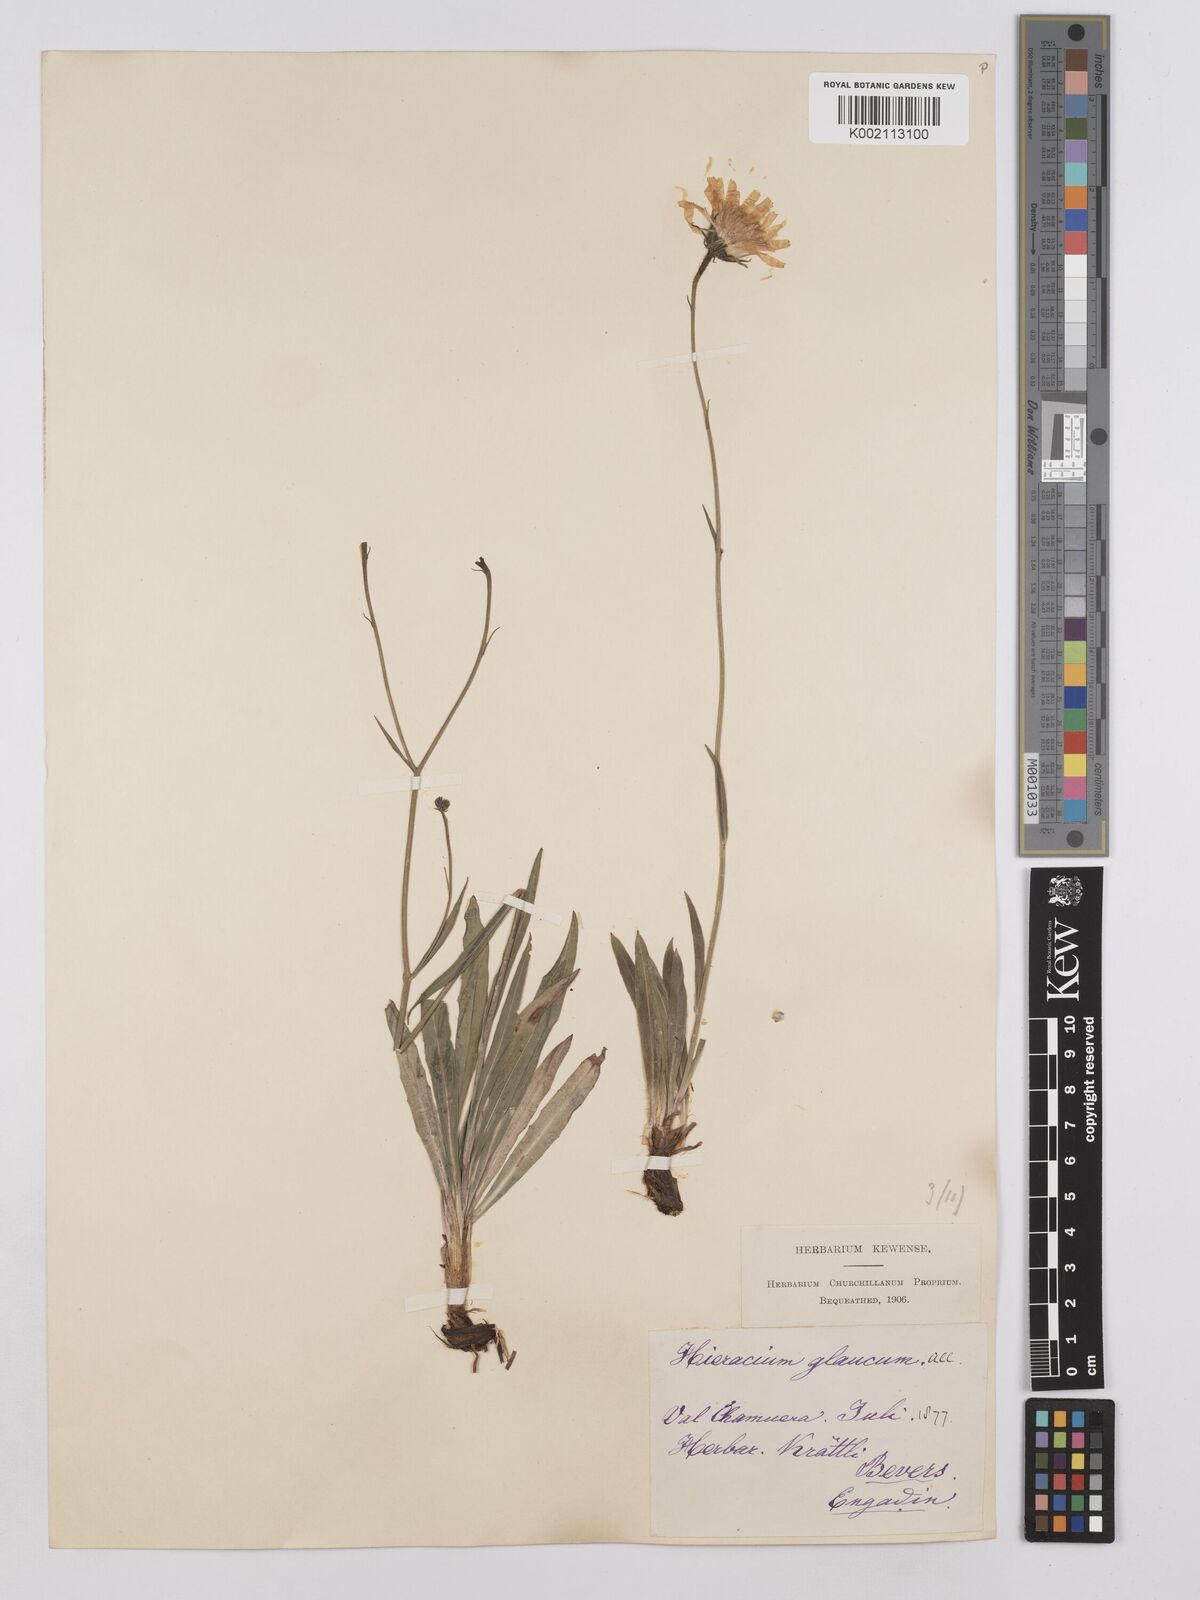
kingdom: Plantae
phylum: Tracheophyta
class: Magnoliopsida
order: Asterales
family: Asteraceae
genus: Hieracium
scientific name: Hieracium glaucum
